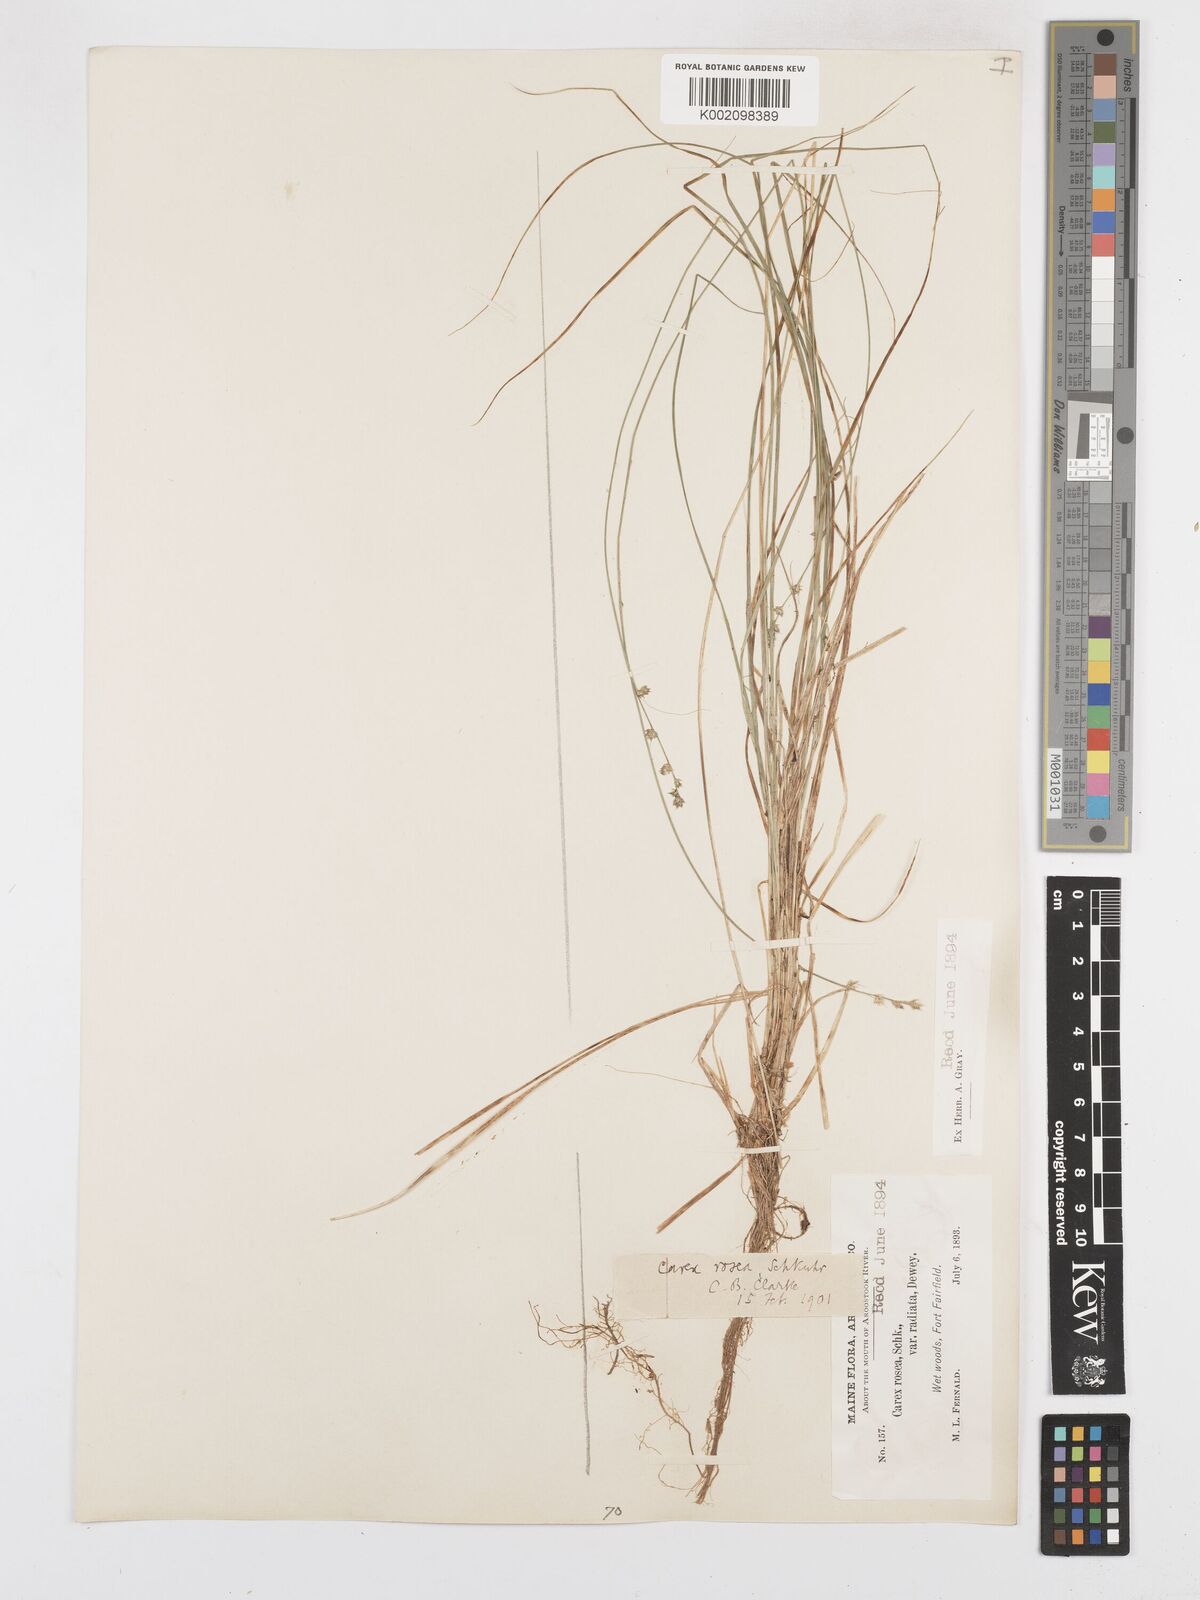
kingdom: Plantae
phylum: Tracheophyta
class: Liliopsida
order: Poales
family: Cyperaceae
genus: Carex
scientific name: Carex rosea
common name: Curly-styled wood sedge
